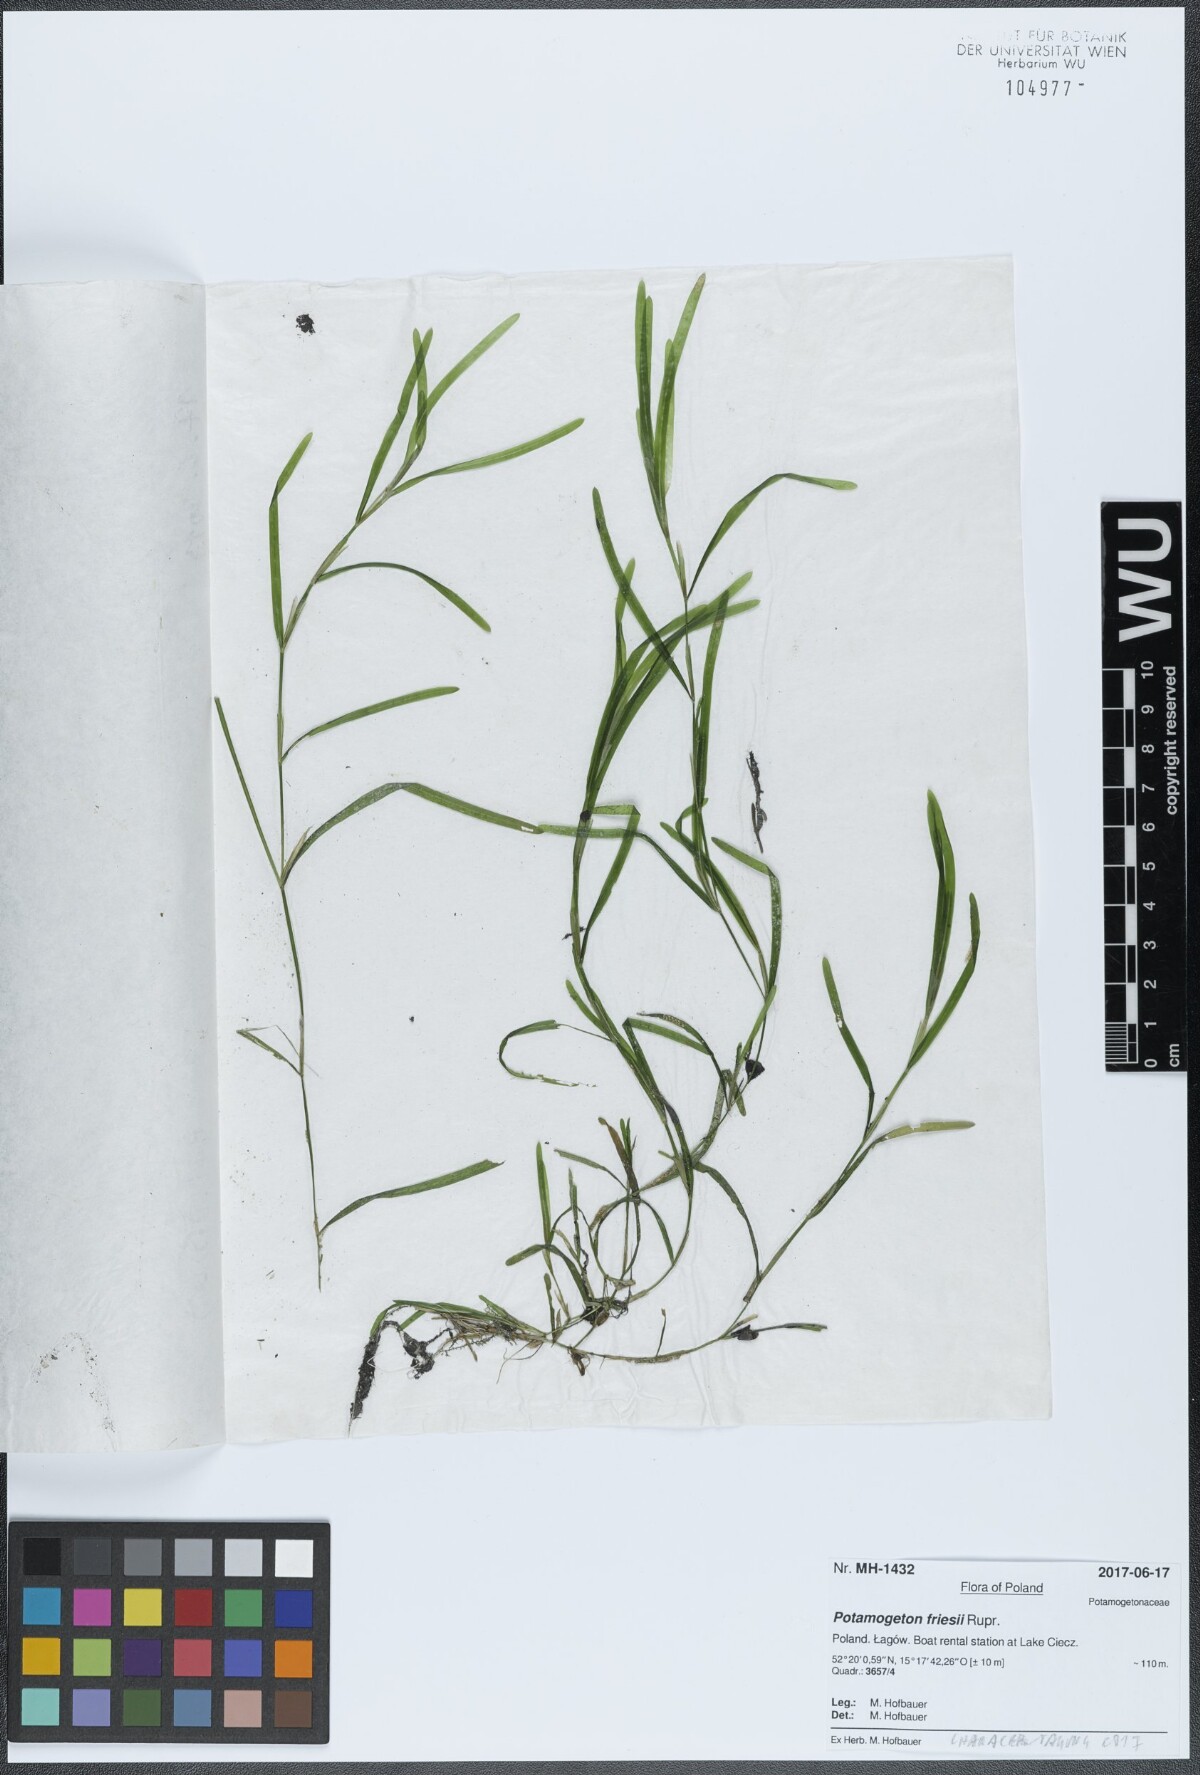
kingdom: Plantae
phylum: Tracheophyta
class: Liliopsida
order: Alismatales
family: Potamogetonaceae
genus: Potamogeton
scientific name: Potamogeton friesii
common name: Flat-stalked pondweed
